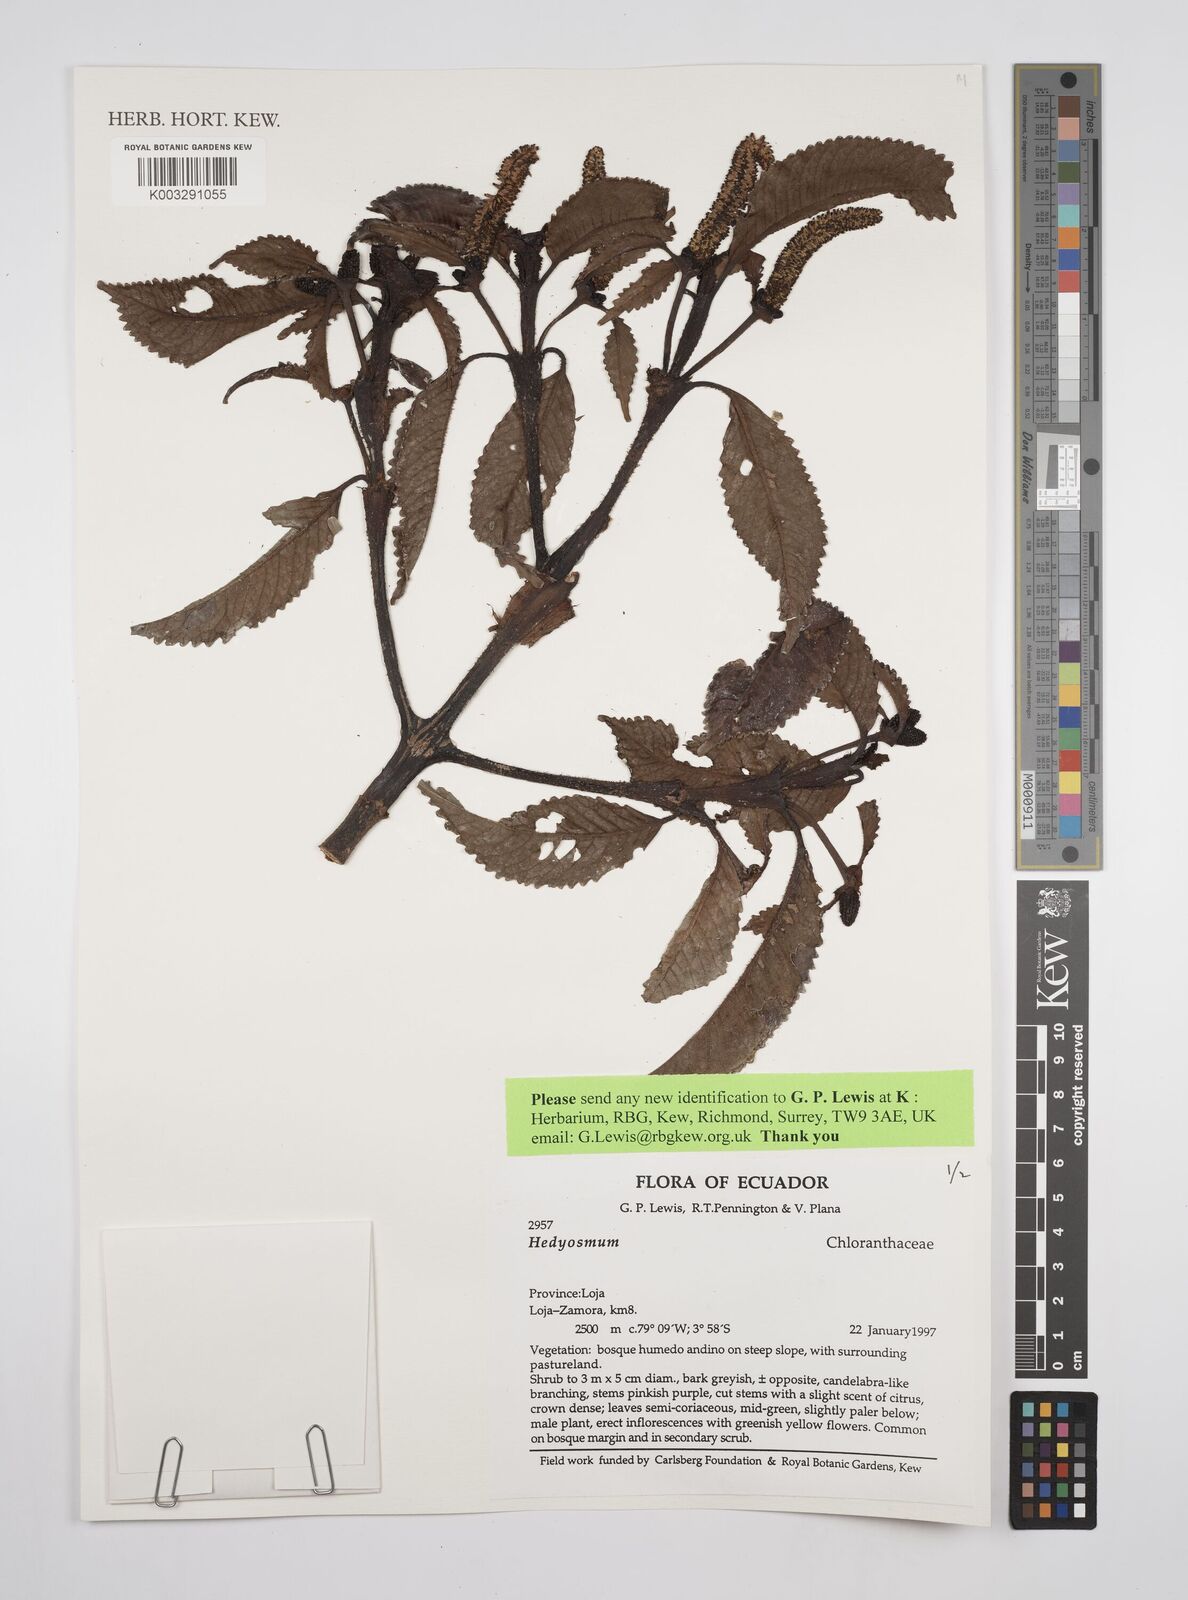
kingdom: Plantae
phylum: Tracheophyta
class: Magnoliopsida
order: Chloranthales
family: Chloranthaceae
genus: Hedyosmum
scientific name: Hedyosmum
